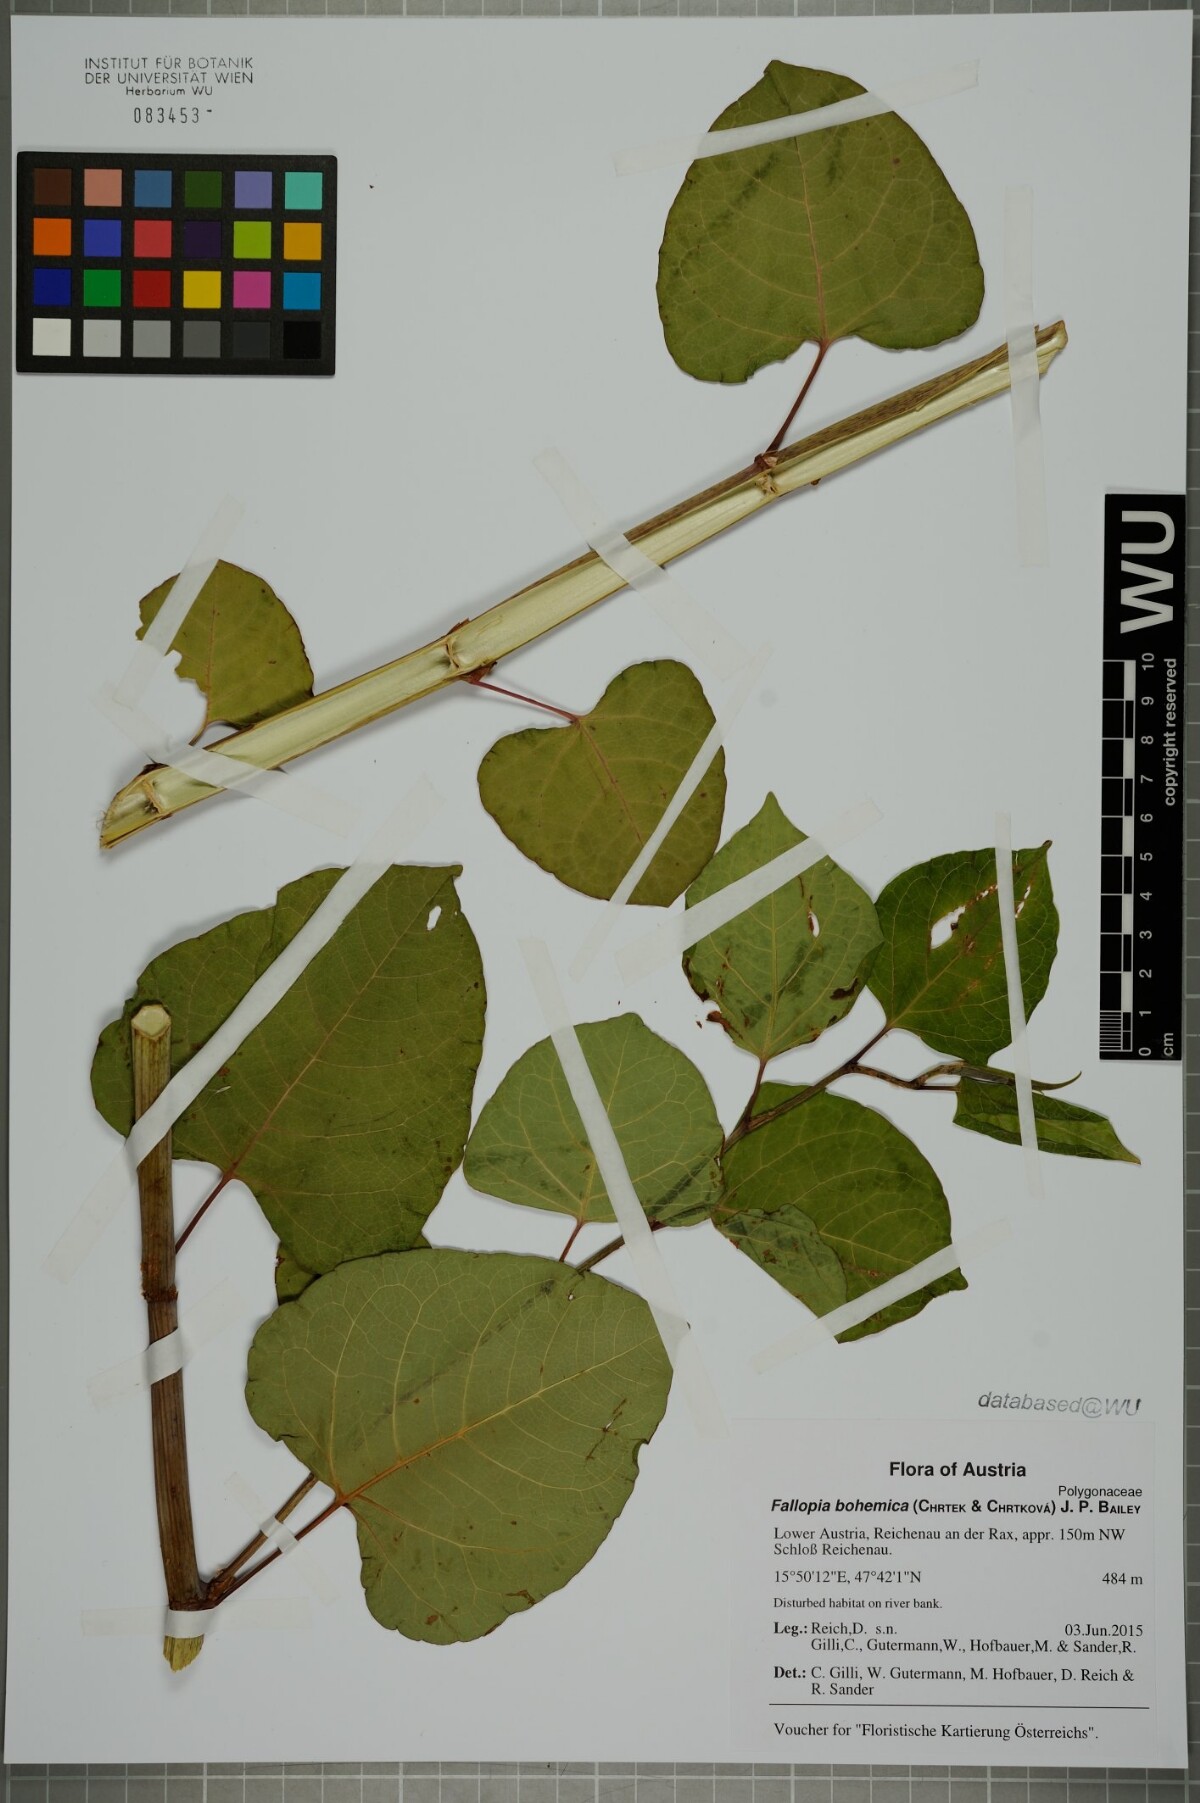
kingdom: Plantae
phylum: Tracheophyta
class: Magnoliopsida
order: Caryophyllales
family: Polygonaceae
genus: Reynoutria
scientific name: Reynoutria bohemica
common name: Bohemian knotweed
